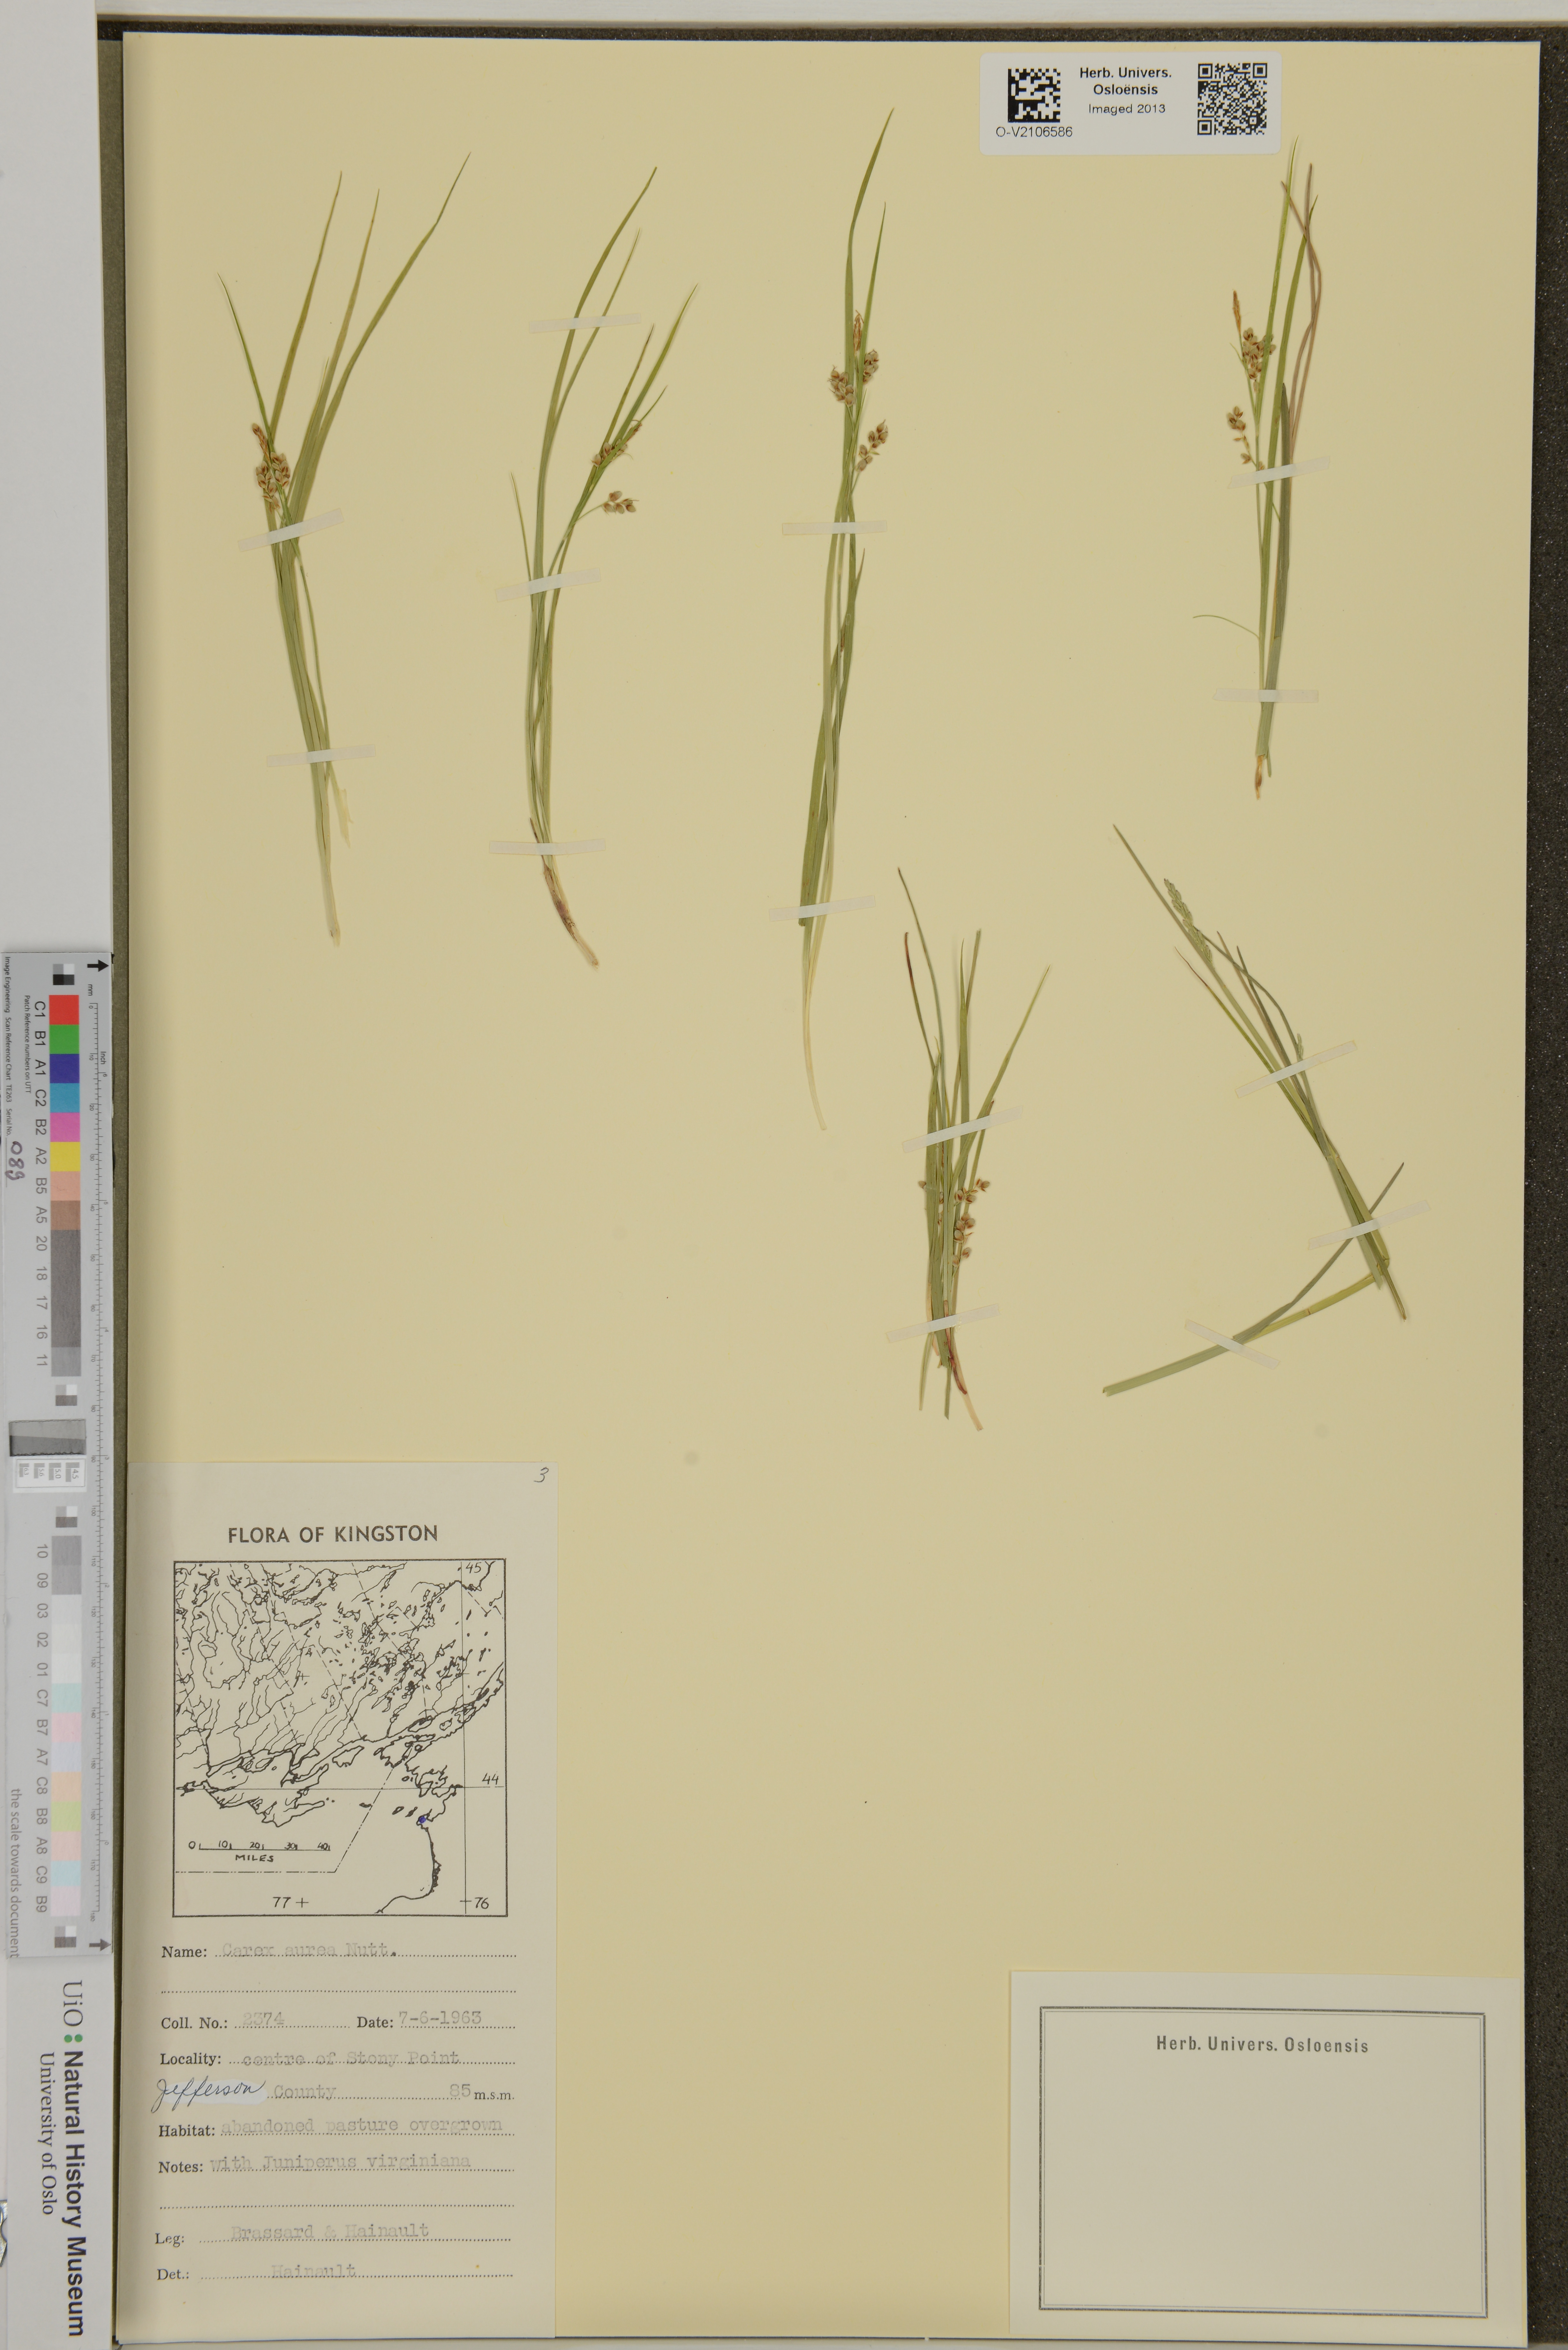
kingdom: Plantae
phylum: Tracheophyta
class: Liliopsida
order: Poales
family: Cyperaceae
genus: Carex
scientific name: Carex aurea
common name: Golden sedge
